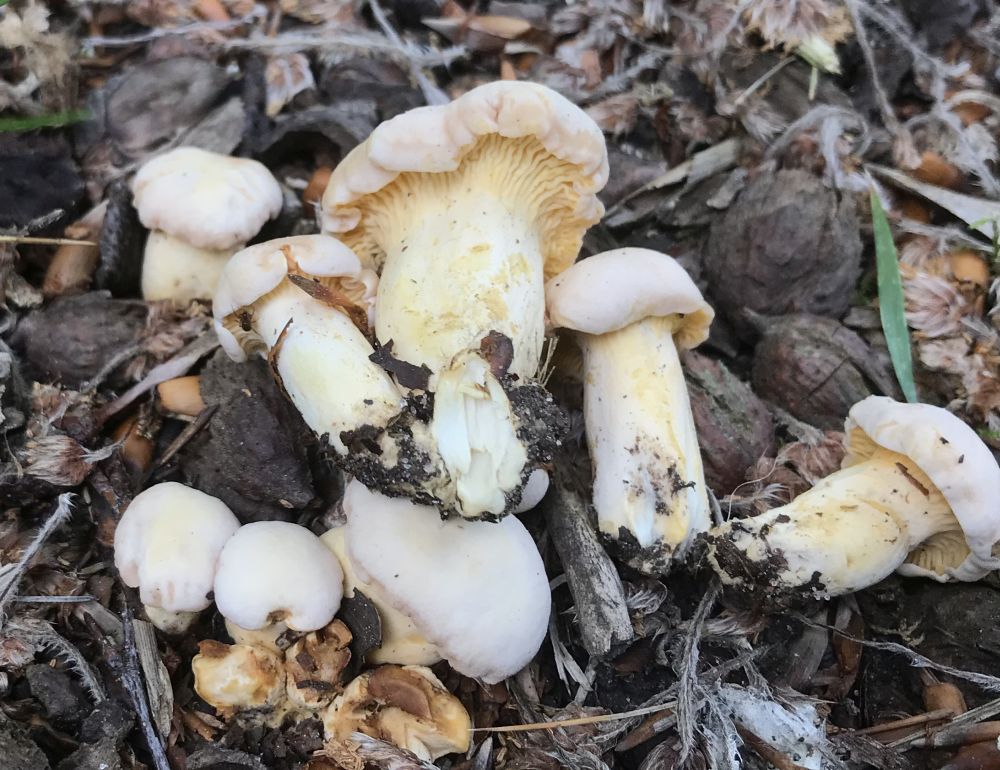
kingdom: Fungi
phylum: Basidiomycota
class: Agaricomycetes
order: Cantharellales
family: Hydnaceae
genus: Cantharellus
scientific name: Cantharellus pallens
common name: bleg kantarel
